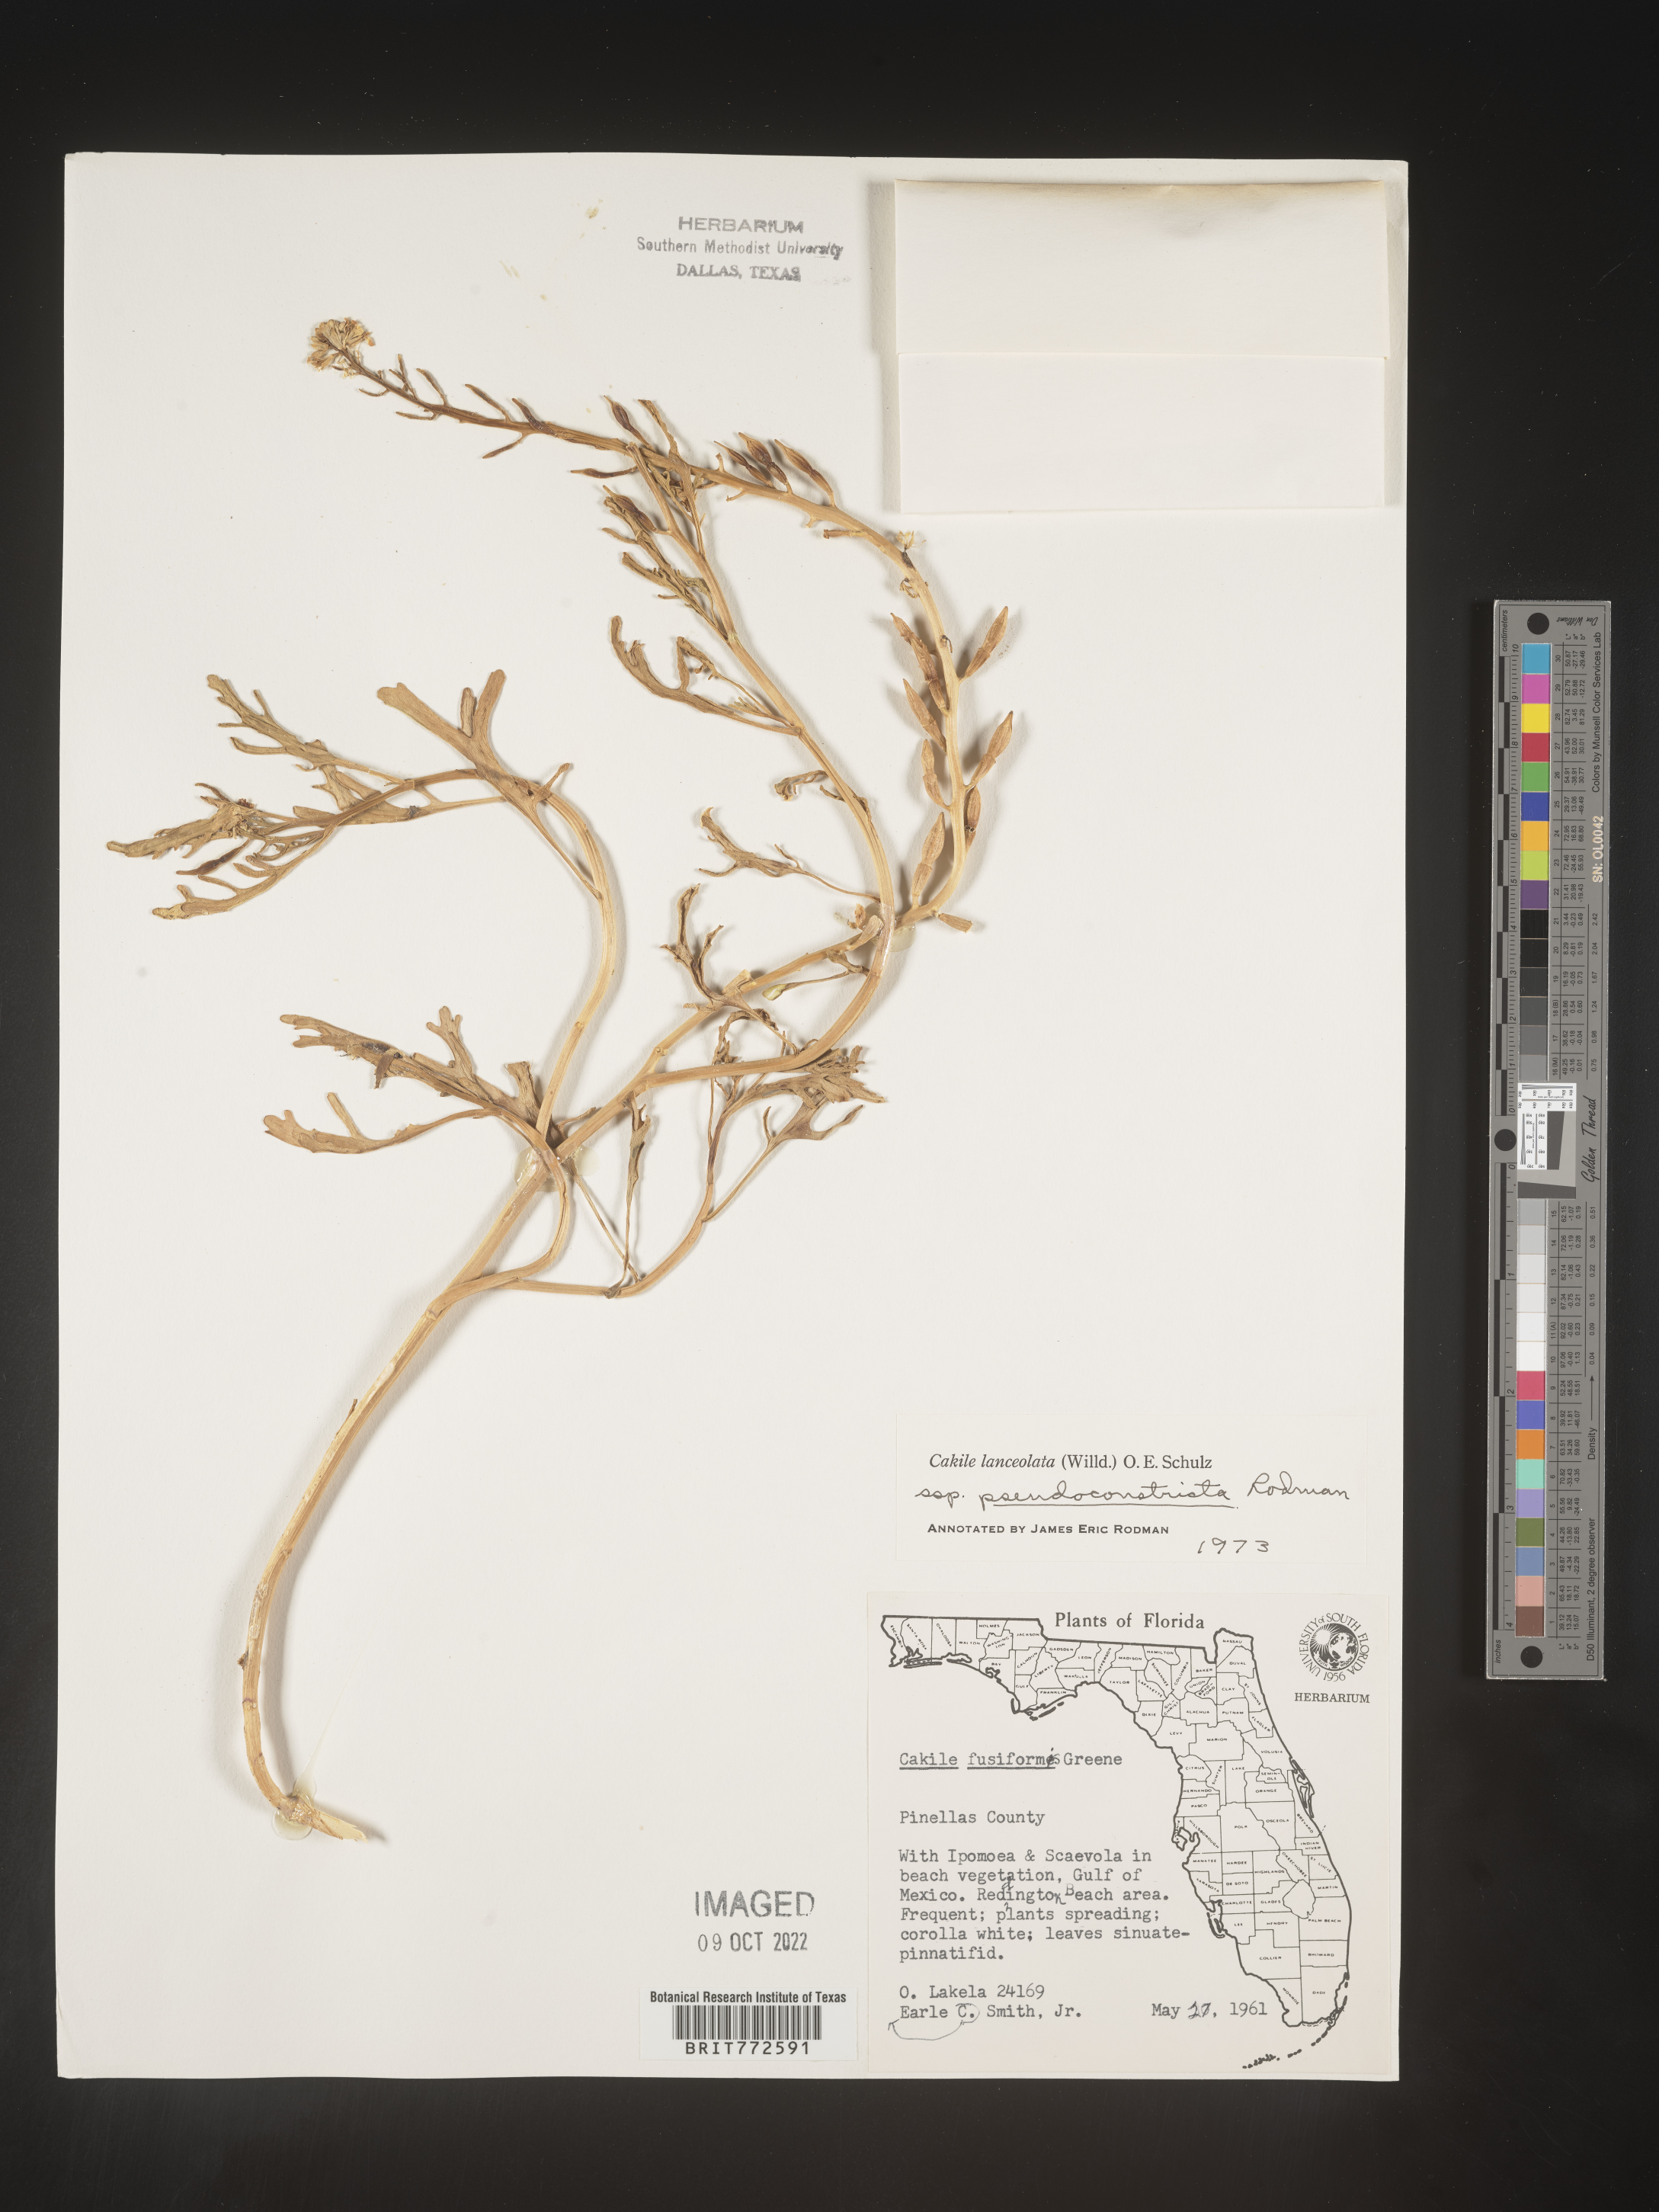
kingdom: Plantae
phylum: Tracheophyta
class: Magnoliopsida
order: Brassicales
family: Brassicaceae
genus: Cakile
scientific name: Cakile lanceolata
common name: Sea rocket
